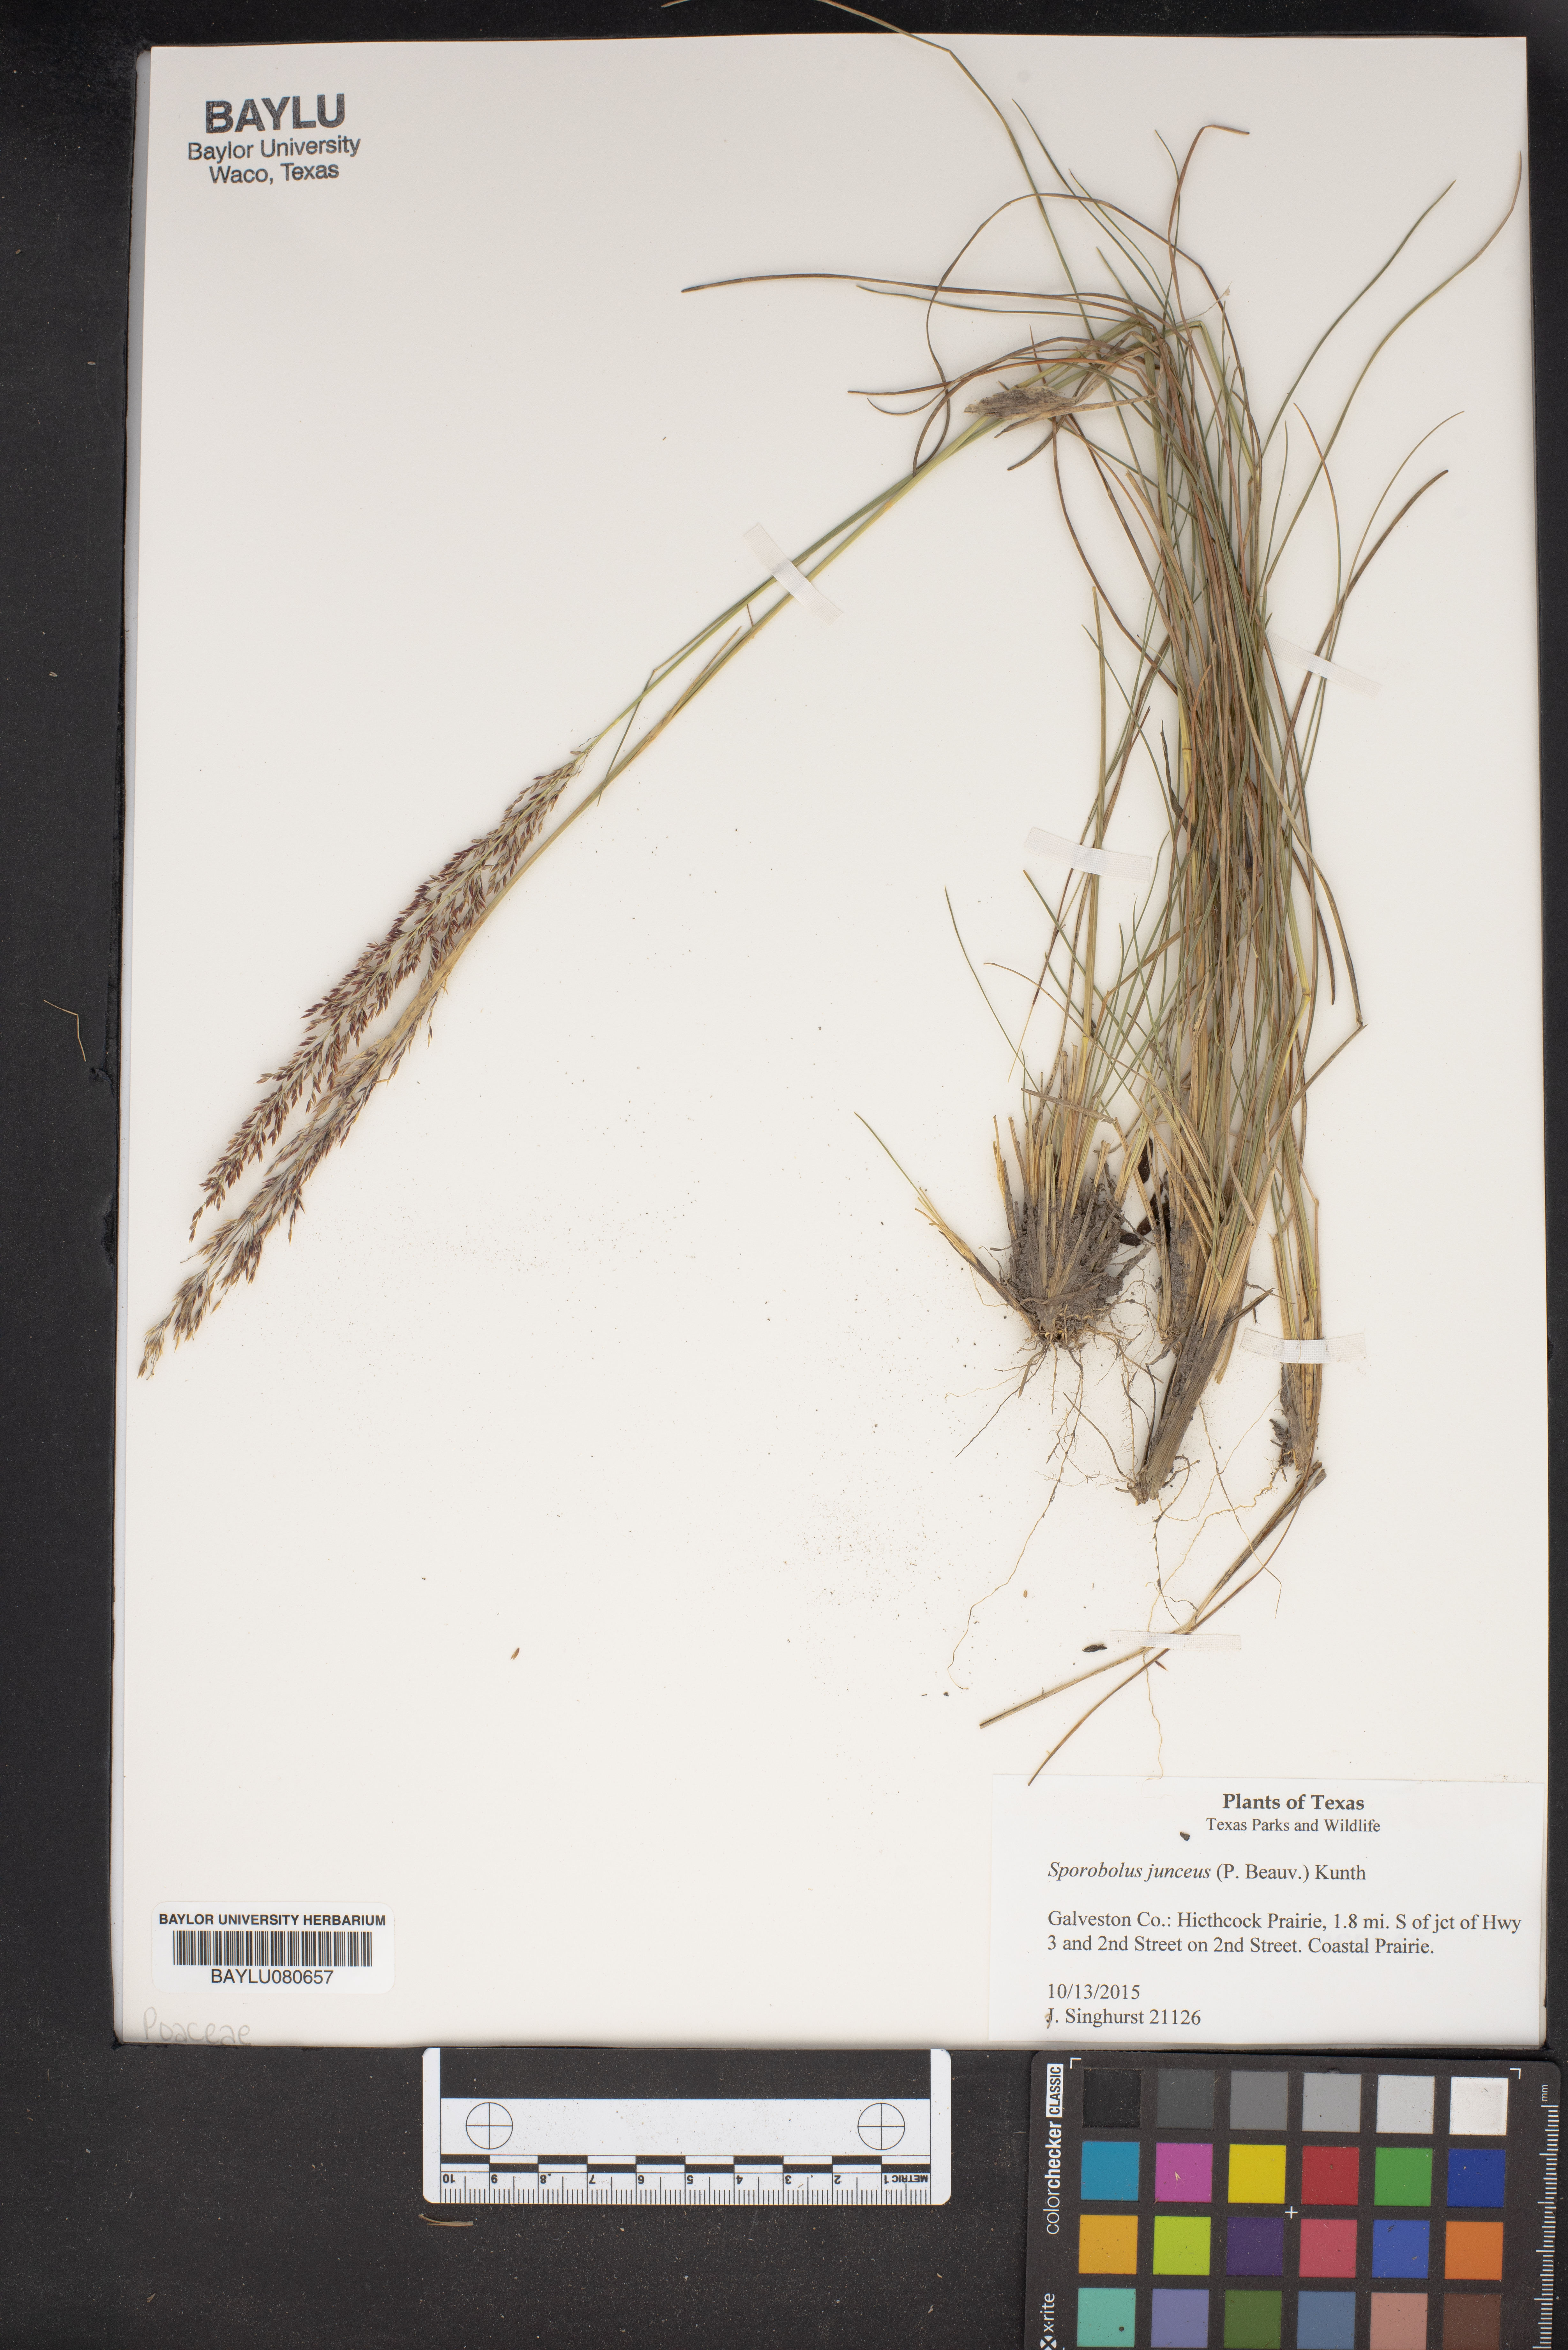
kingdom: Plantae
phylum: Tracheophyta
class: Liliopsida
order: Poales
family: Poaceae
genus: Sporobolus
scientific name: Sporobolus junceus
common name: Lizard grass
